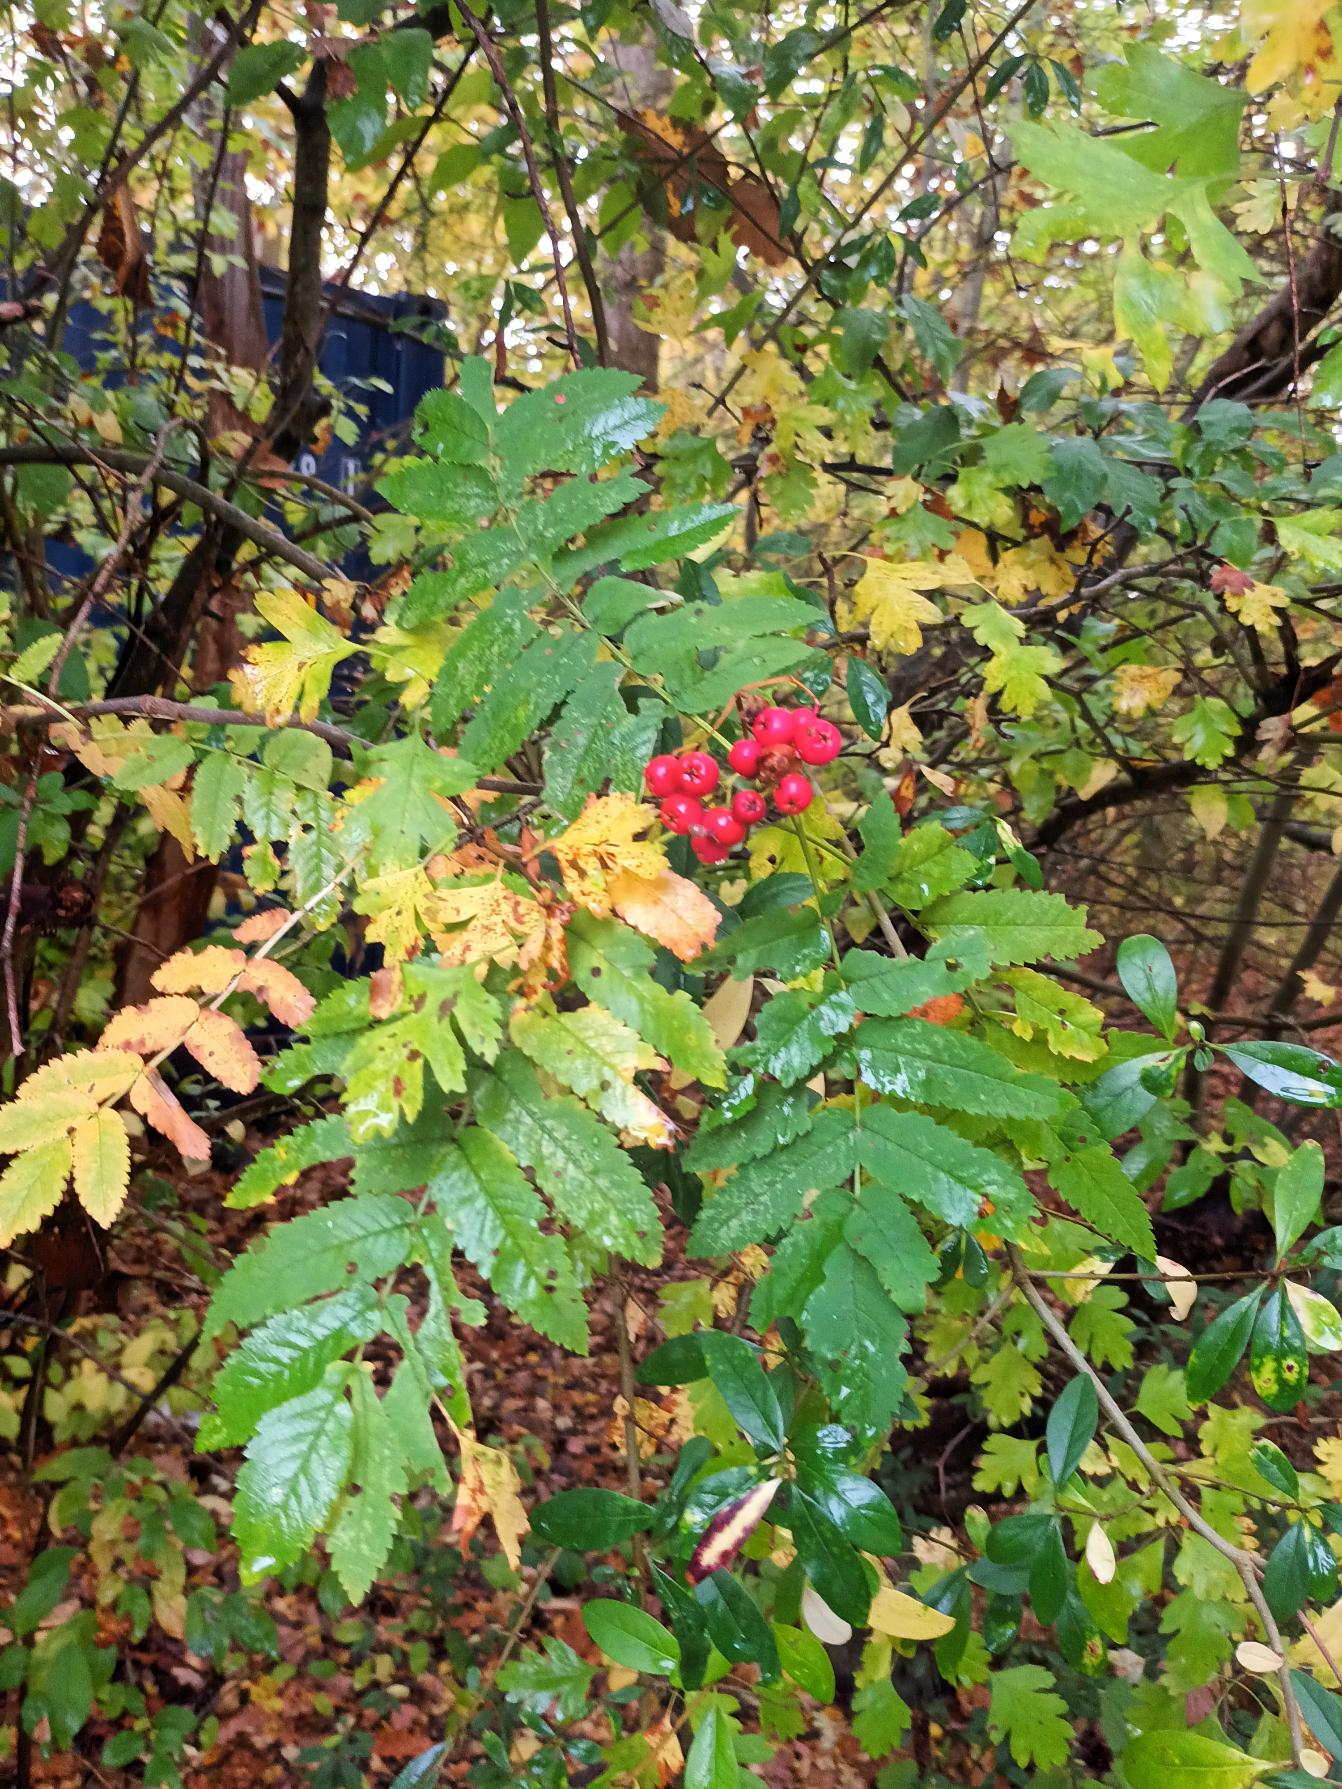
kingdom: Plantae
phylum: Tracheophyta
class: Magnoliopsida
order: Rosales
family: Rosaceae
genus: Sorbus
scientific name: Sorbus aucuparia
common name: Almindelig røn
